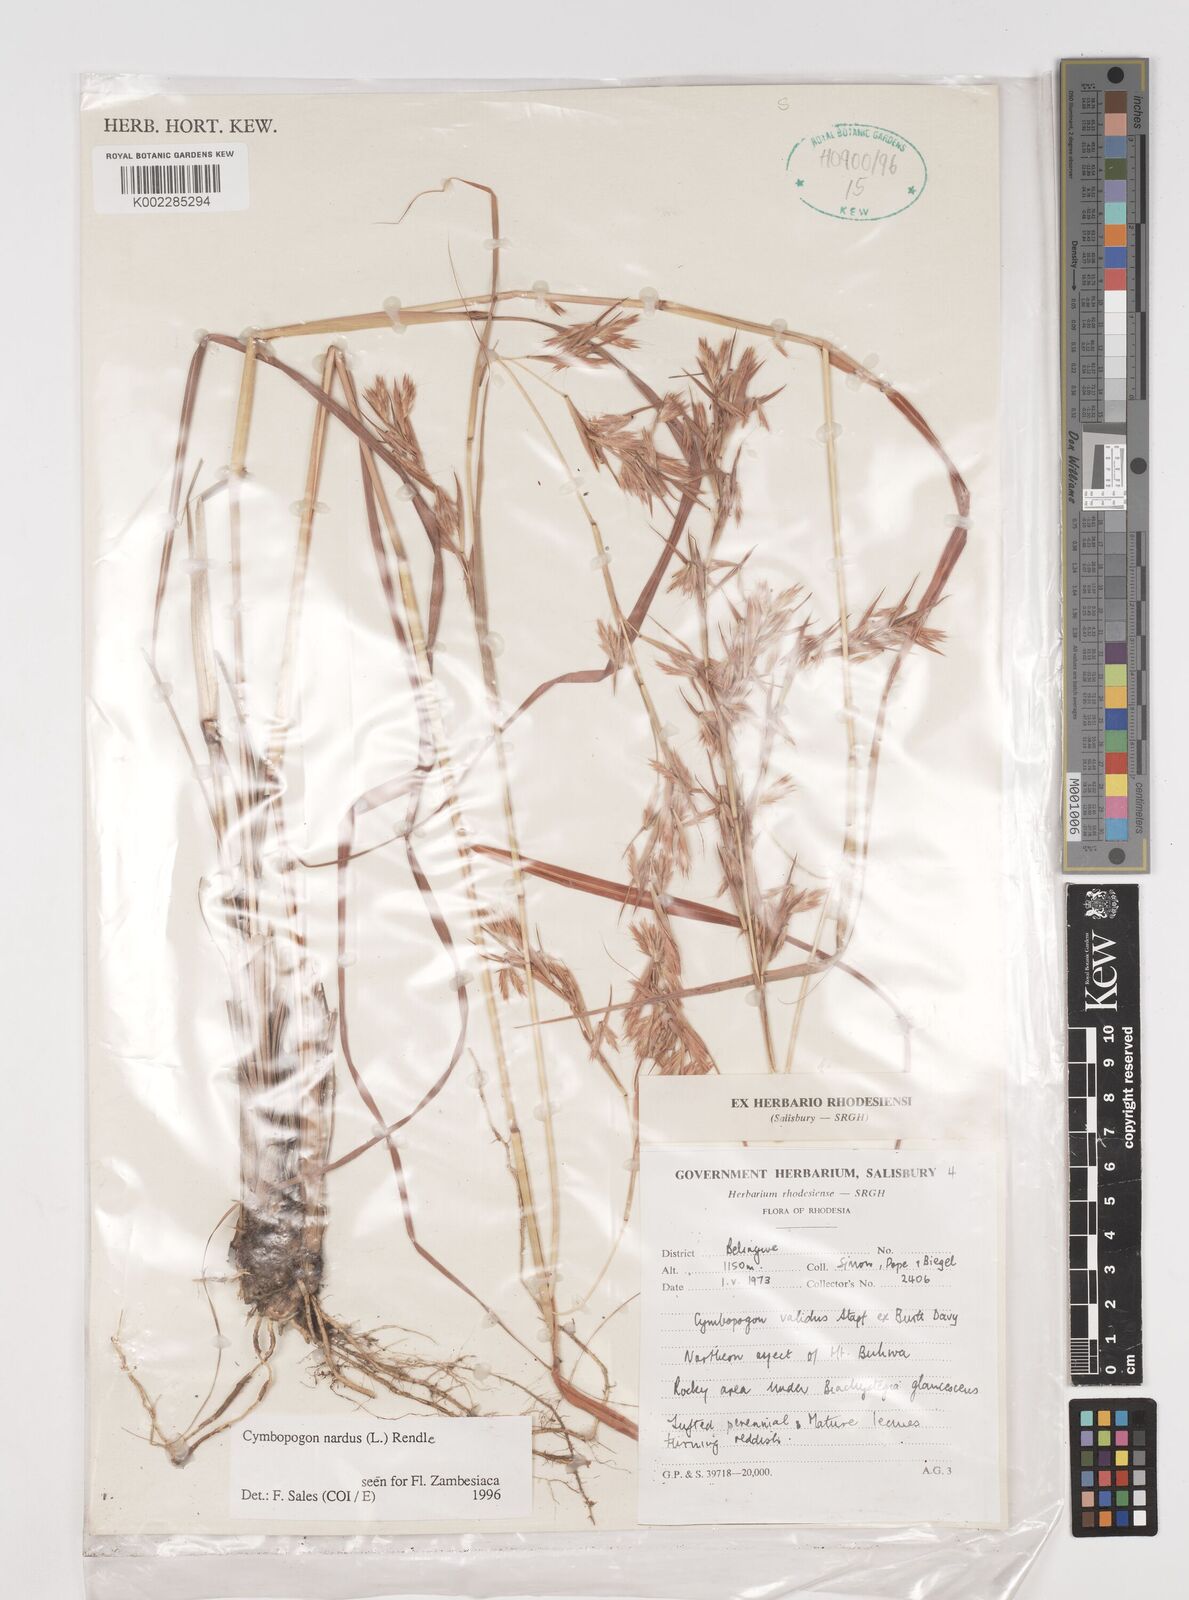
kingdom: Plantae
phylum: Tracheophyta
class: Liliopsida
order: Poales
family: Poaceae
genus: Cymbopogon
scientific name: Cymbopogon nardus
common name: Giant turpentine grass
